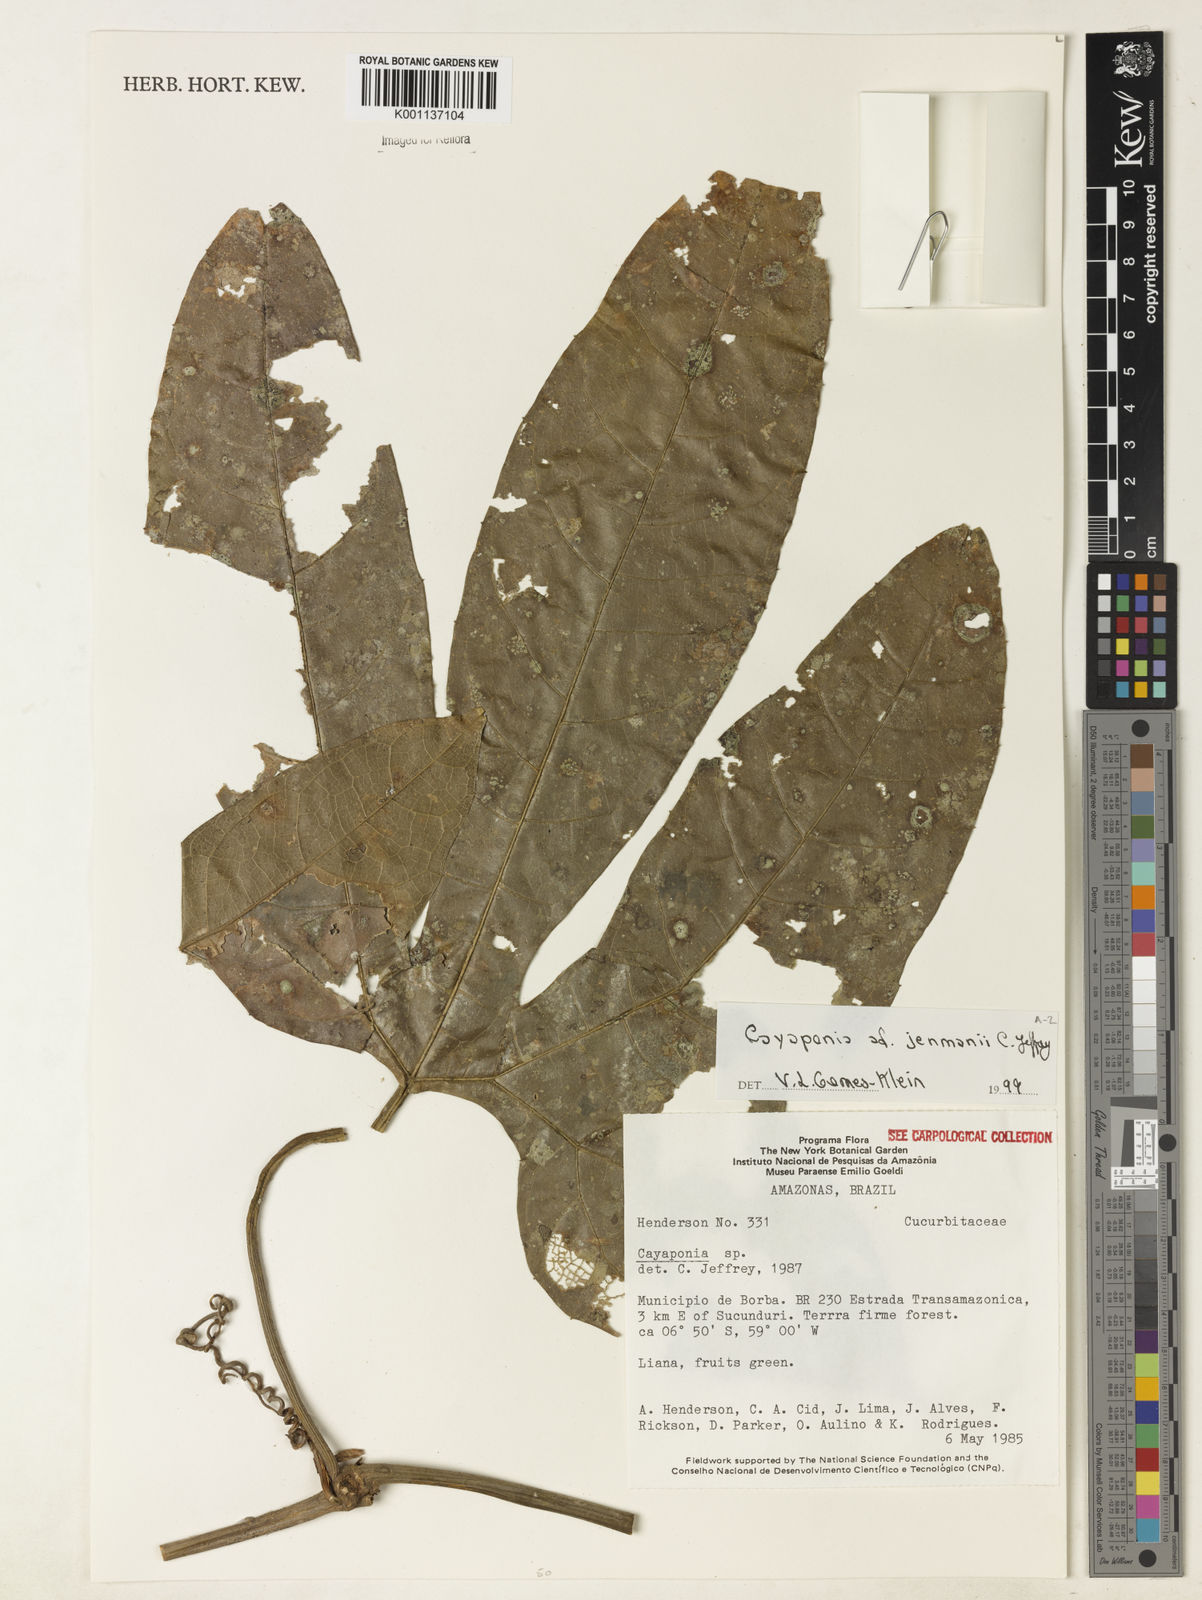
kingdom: Plantae
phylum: Tracheophyta
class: Magnoliopsida
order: Cucurbitales
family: Cucurbitaceae
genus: Cayaponia
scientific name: Cayaponia jenmanii
